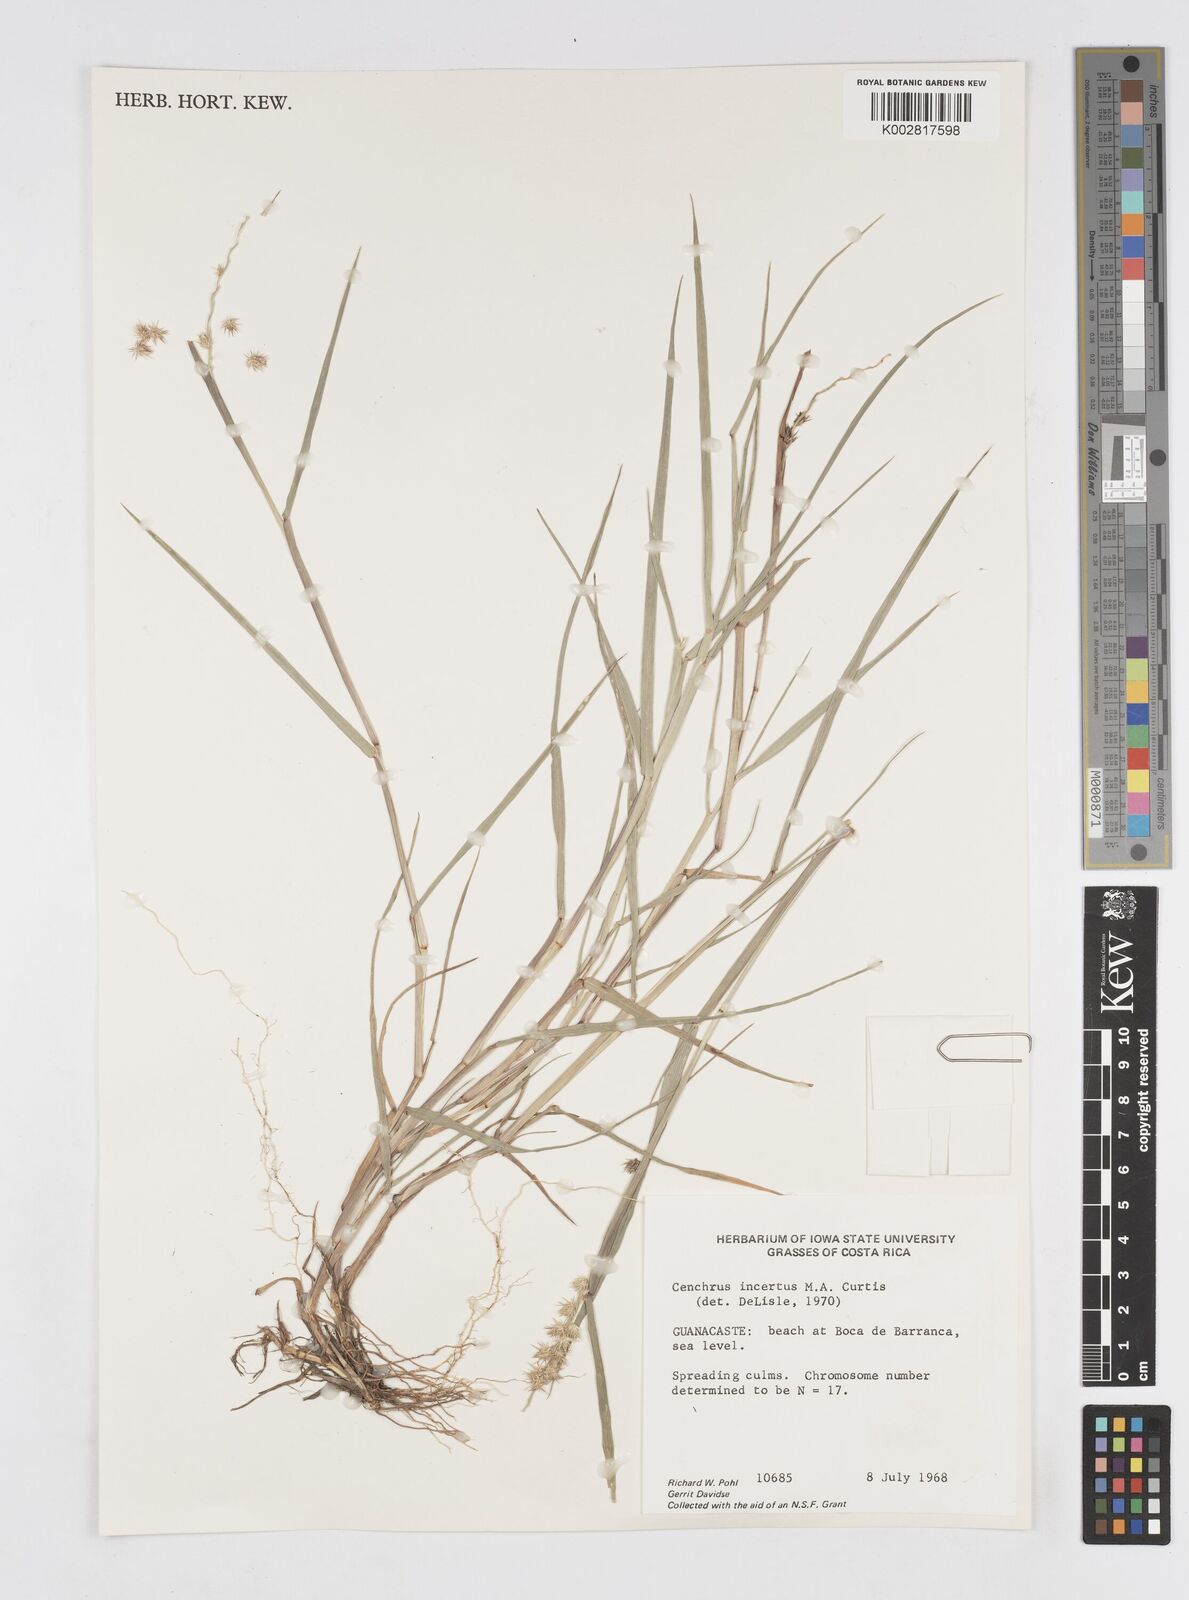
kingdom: Plantae
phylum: Tracheophyta
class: Liliopsida
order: Poales
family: Poaceae
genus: Cenchrus
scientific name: Cenchrus spinifex
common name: Coast sandbur
